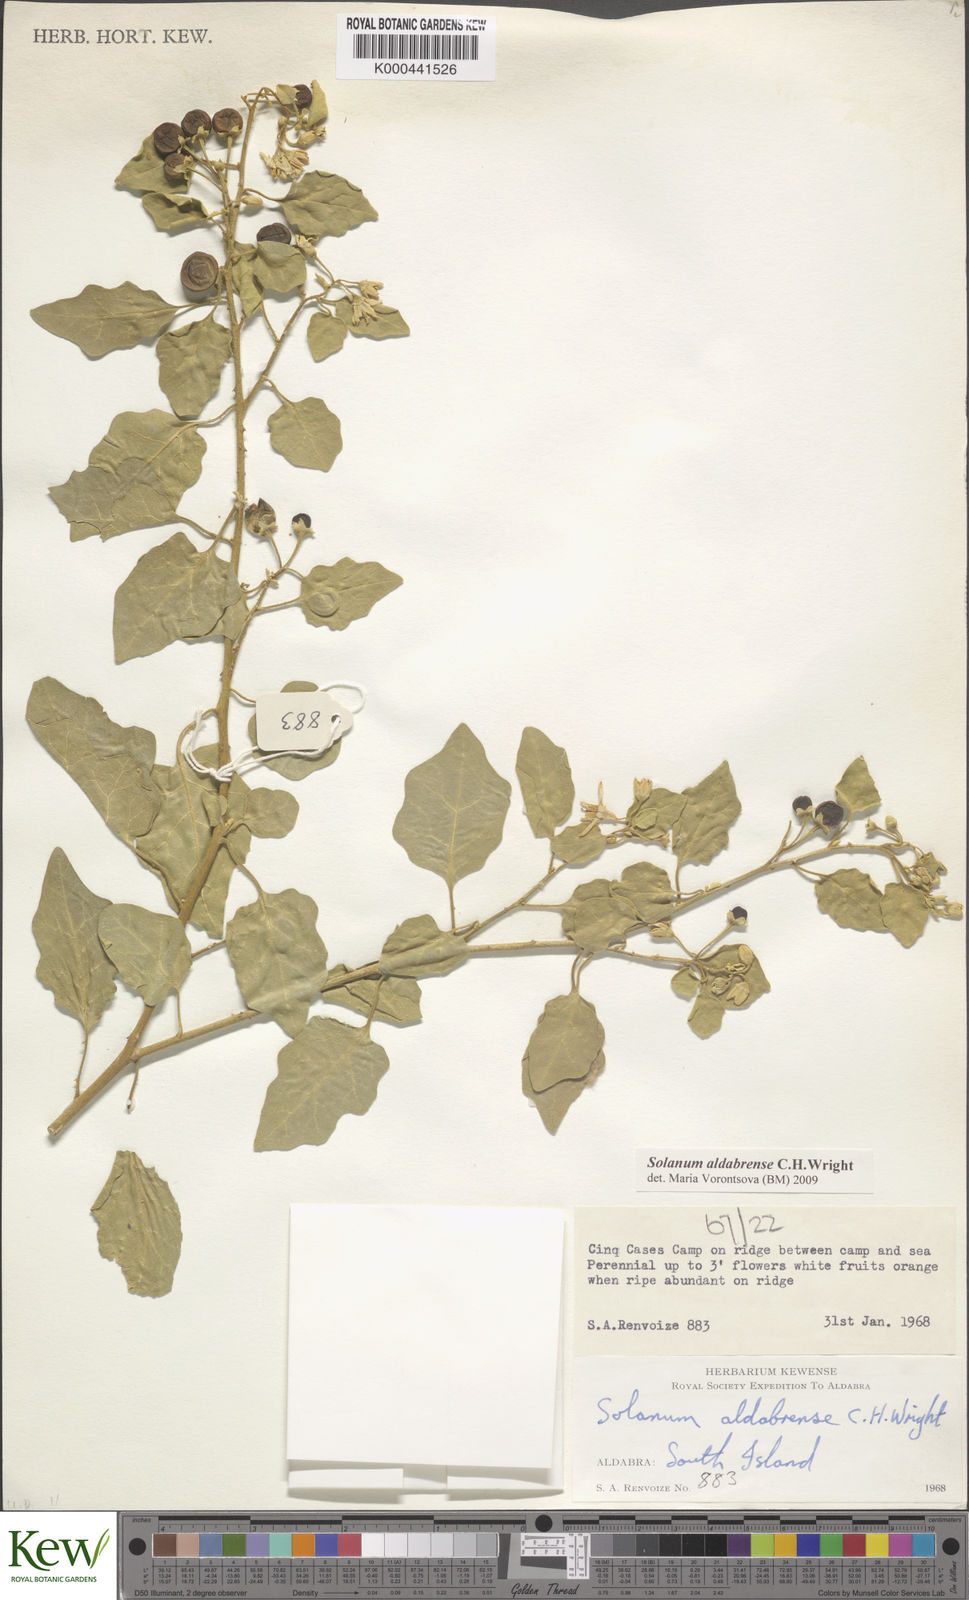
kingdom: Plantae
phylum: Tracheophyta
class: Magnoliopsida
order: Solanales
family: Solanaceae
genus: Solanum
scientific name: Solanum aldabrense
